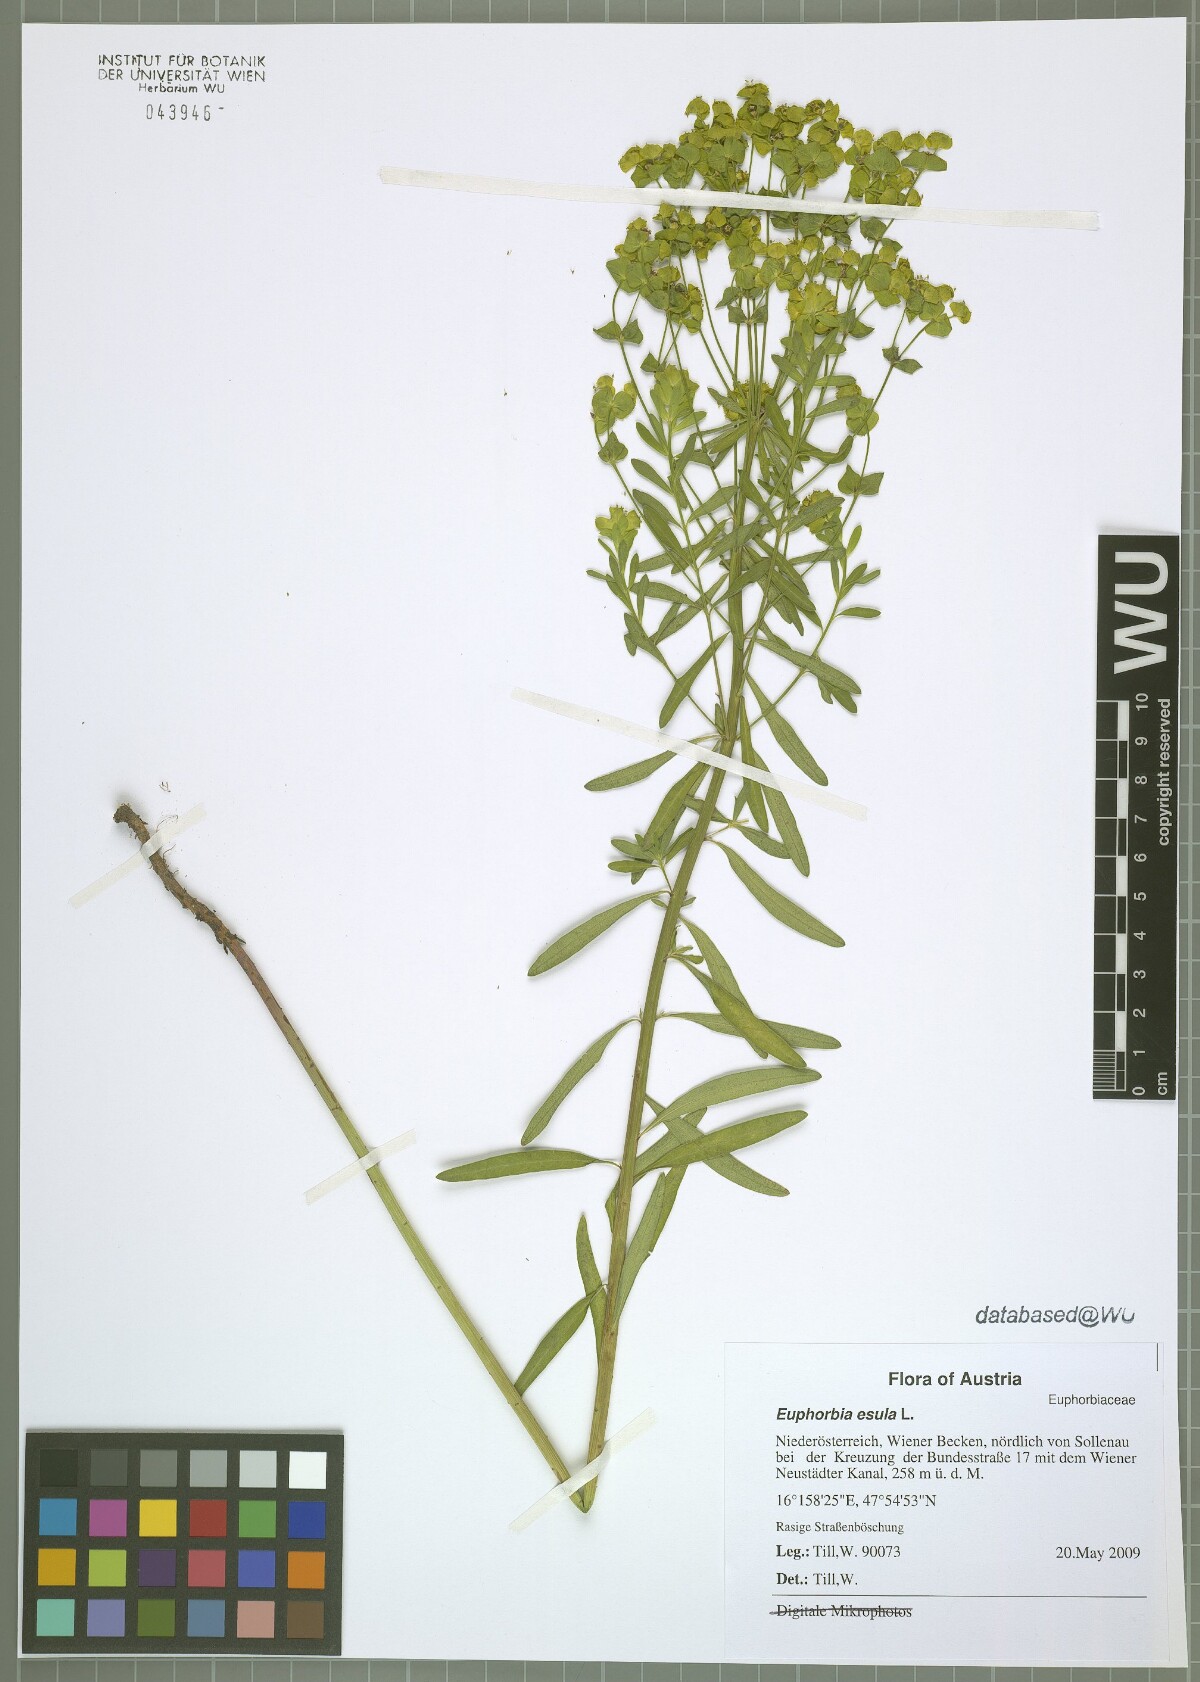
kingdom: Plantae
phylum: Tracheophyta
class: Magnoliopsida
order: Malpighiales
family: Euphorbiaceae
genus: Euphorbia
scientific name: Euphorbia esula
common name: Leafy spurge
